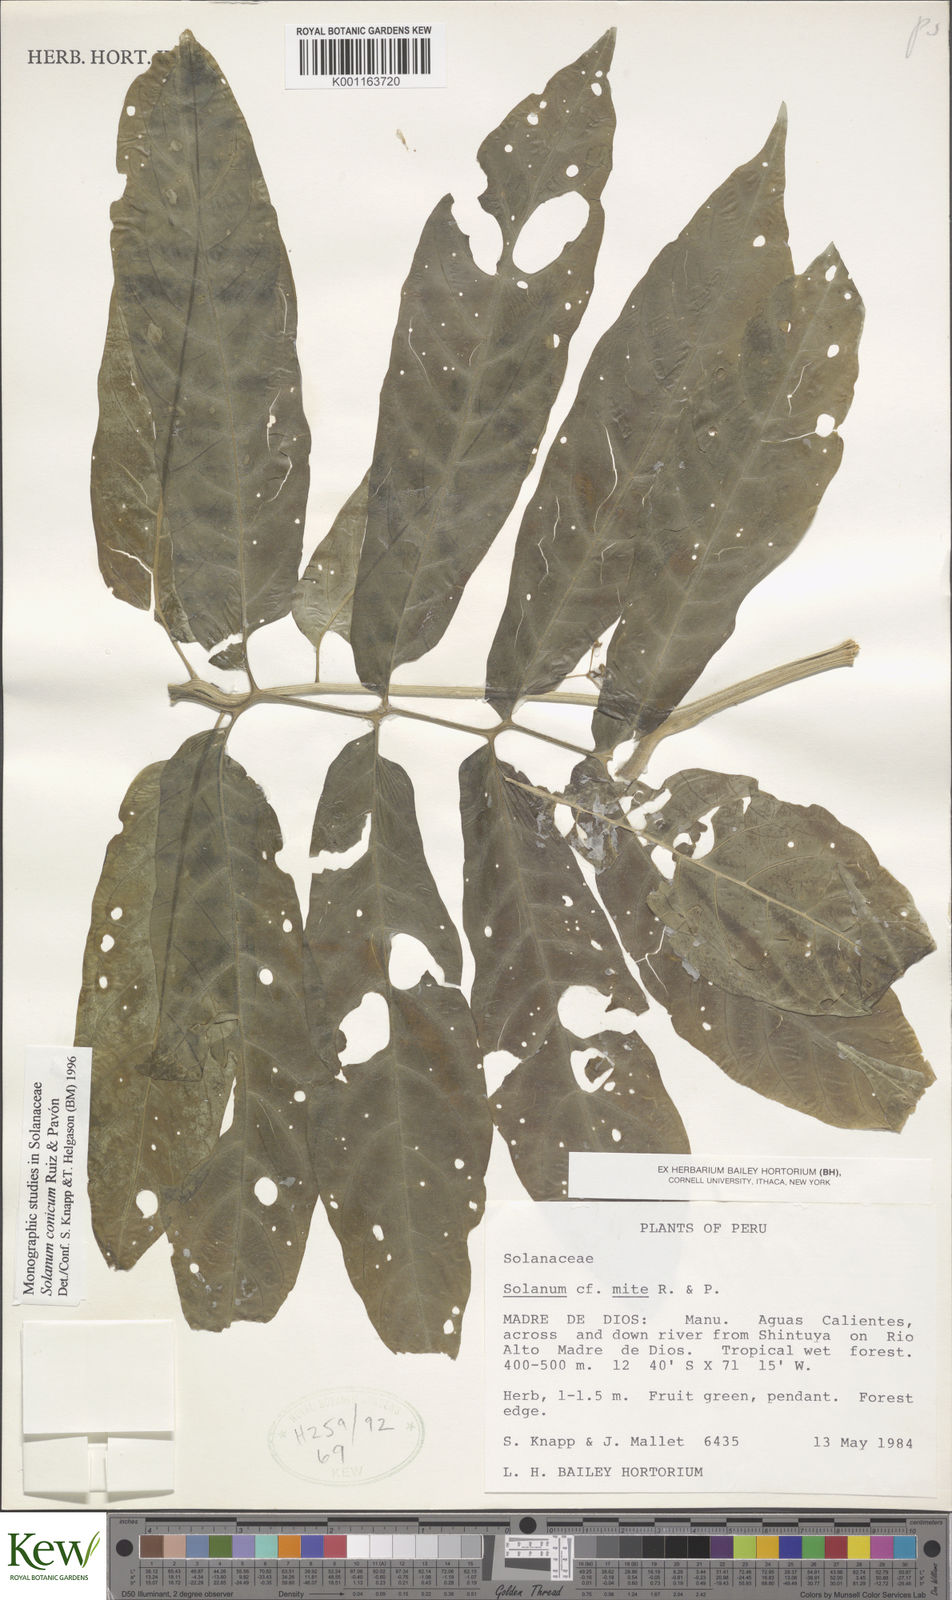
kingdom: Plantae
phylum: Tracheophyta
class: Magnoliopsida
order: Solanales
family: Solanaceae
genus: Solanum
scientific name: Solanum conicum
